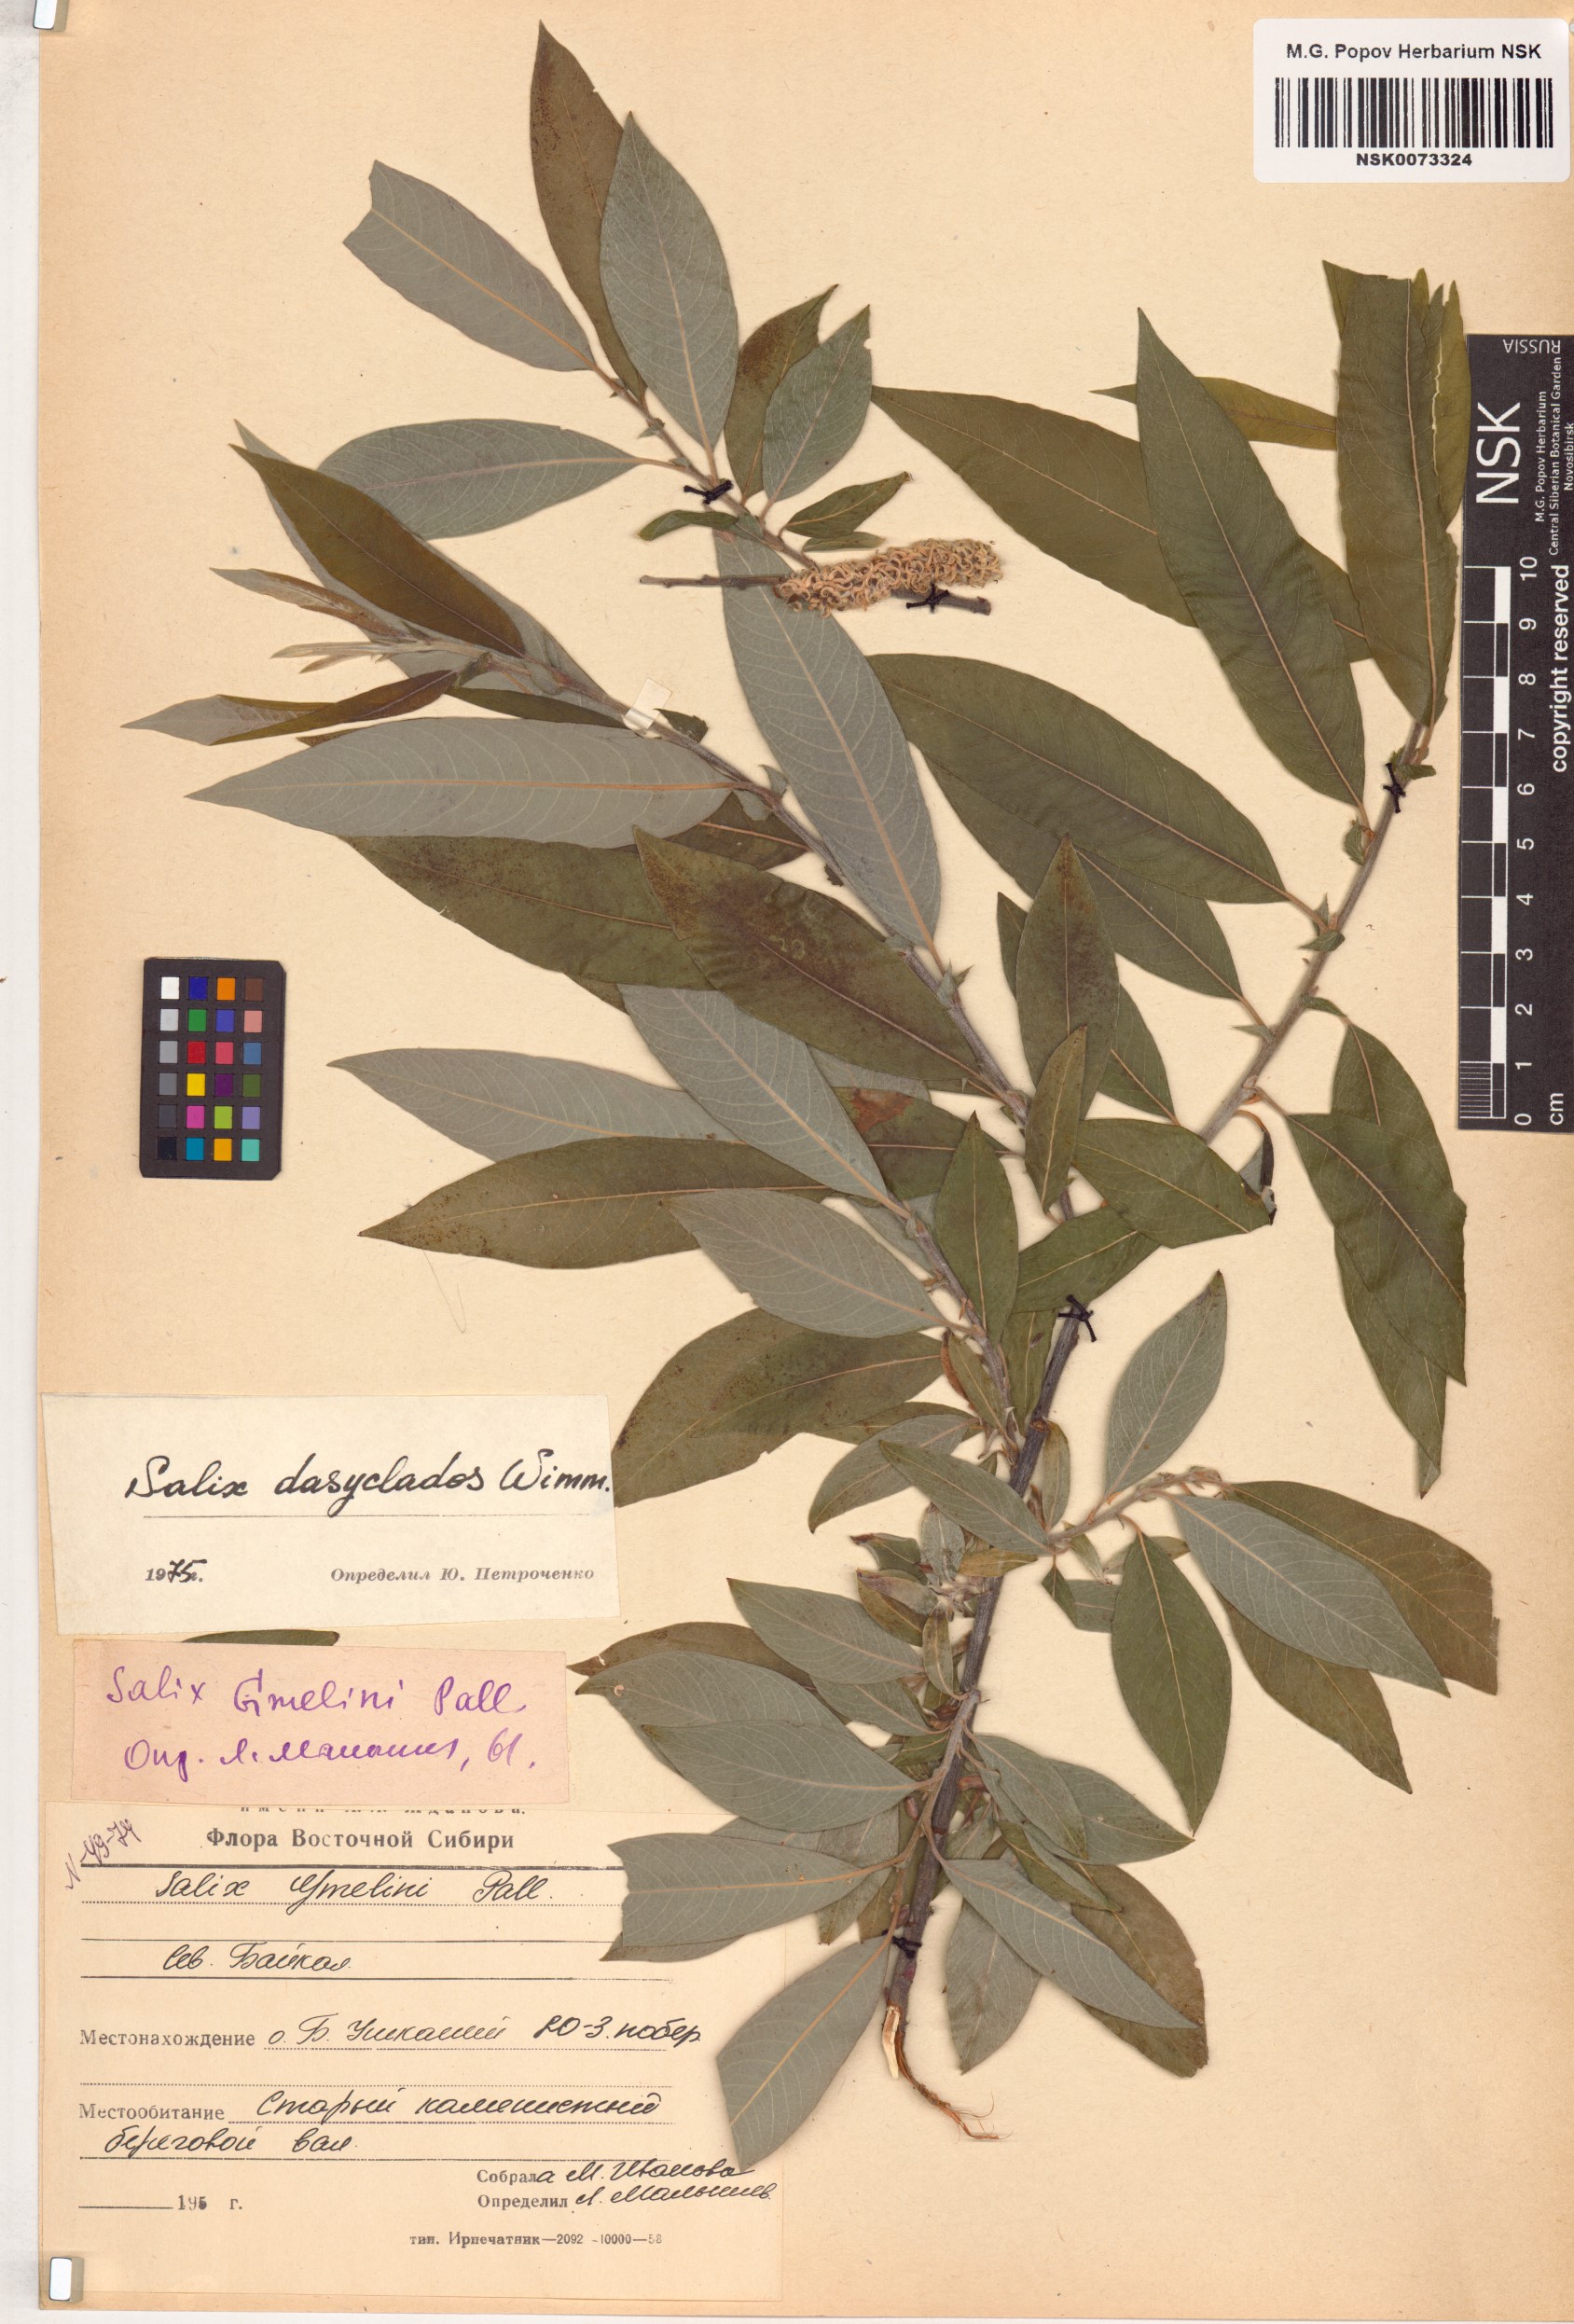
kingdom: Plantae
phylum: Tracheophyta
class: Magnoliopsida
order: Malpighiales
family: Salicaceae
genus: Salix
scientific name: Salix gmelinii
